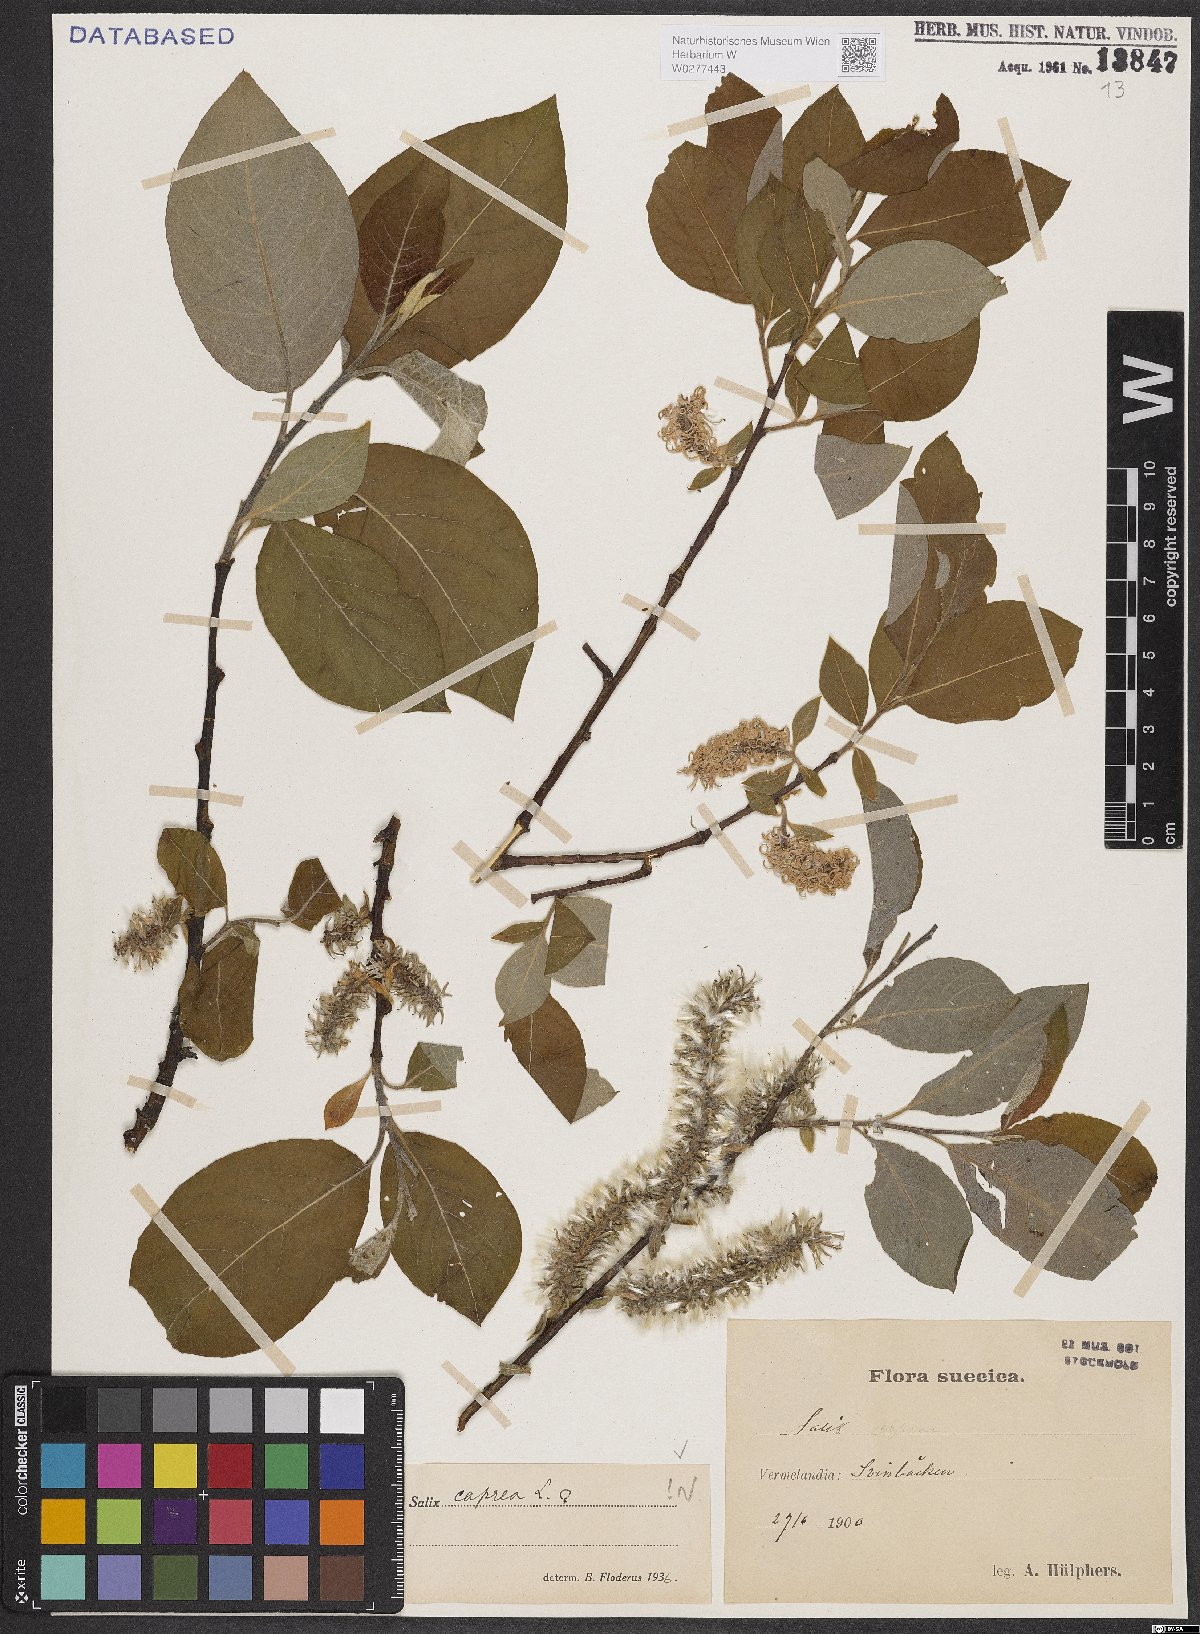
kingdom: Plantae
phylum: Tracheophyta
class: Magnoliopsida
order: Malpighiales
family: Salicaceae
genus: Salix
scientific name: Salix caprea
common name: Goat willow
